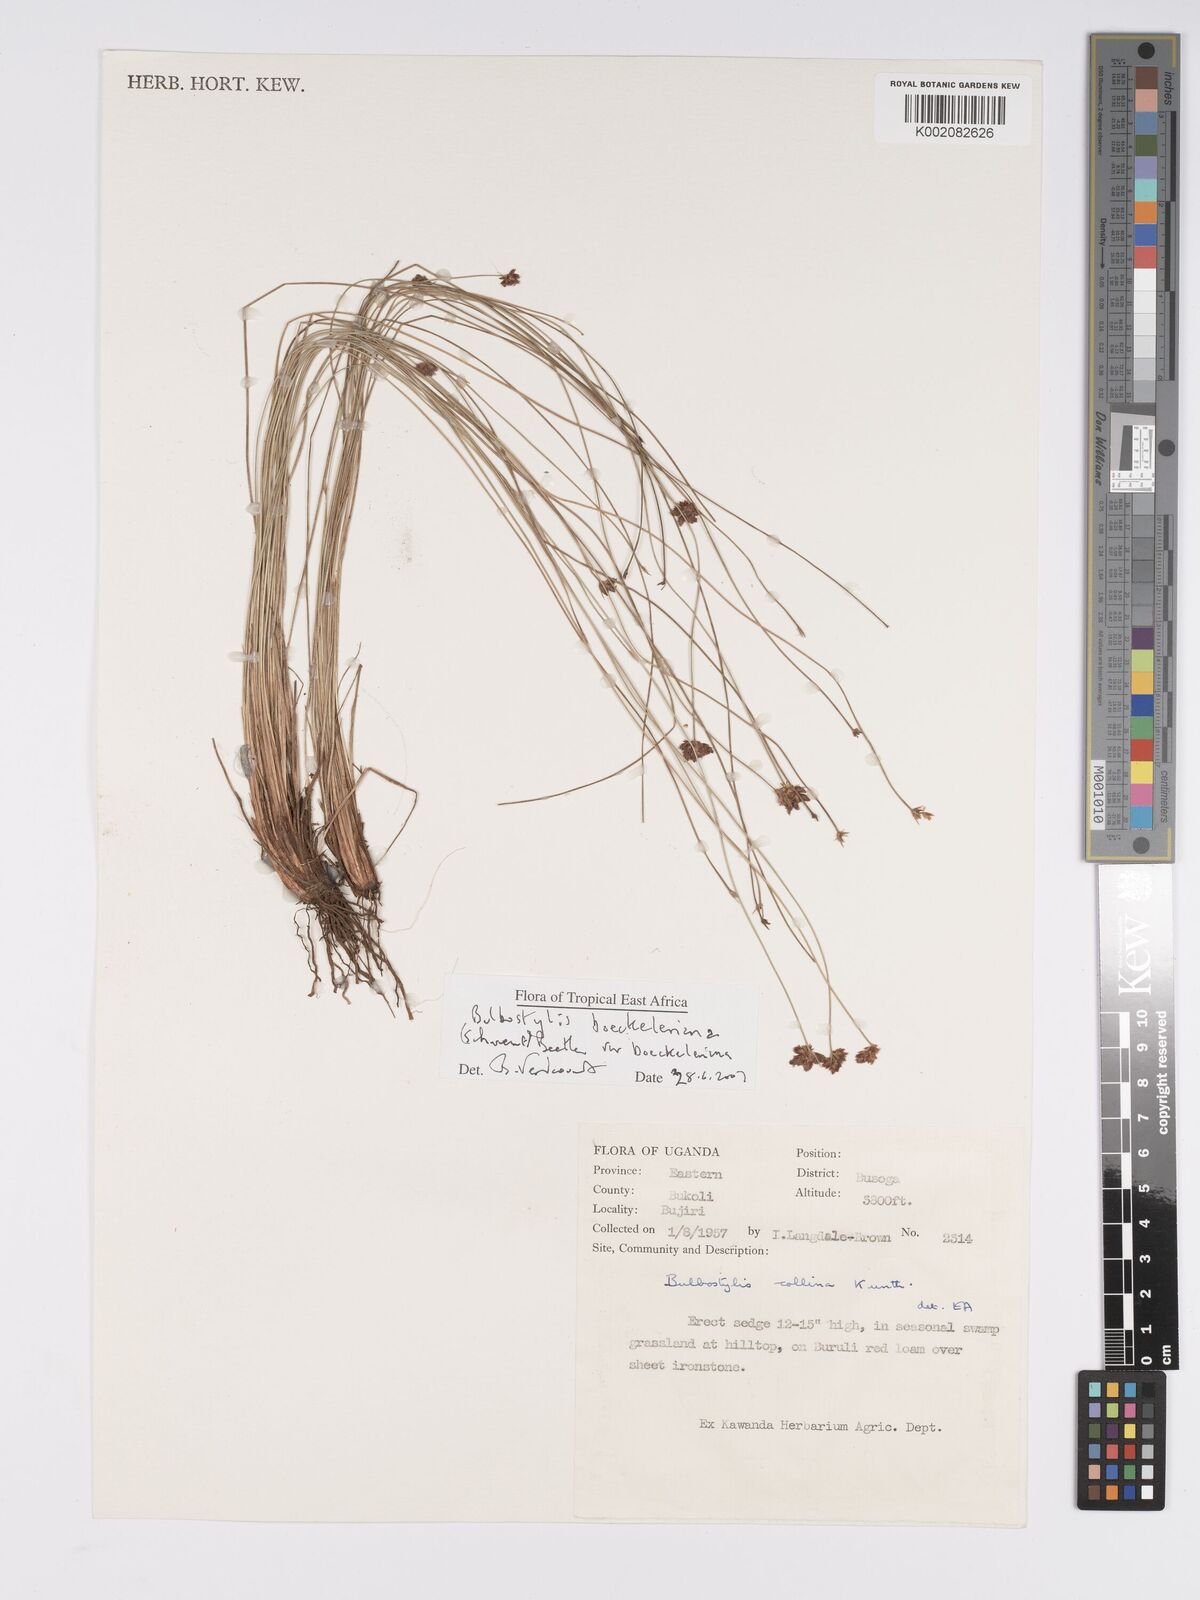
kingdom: Plantae
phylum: Tracheophyta
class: Liliopsida
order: Poales
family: Cyperaceae
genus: Bulbostylis
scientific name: Bulbostylis boeckeleriana
